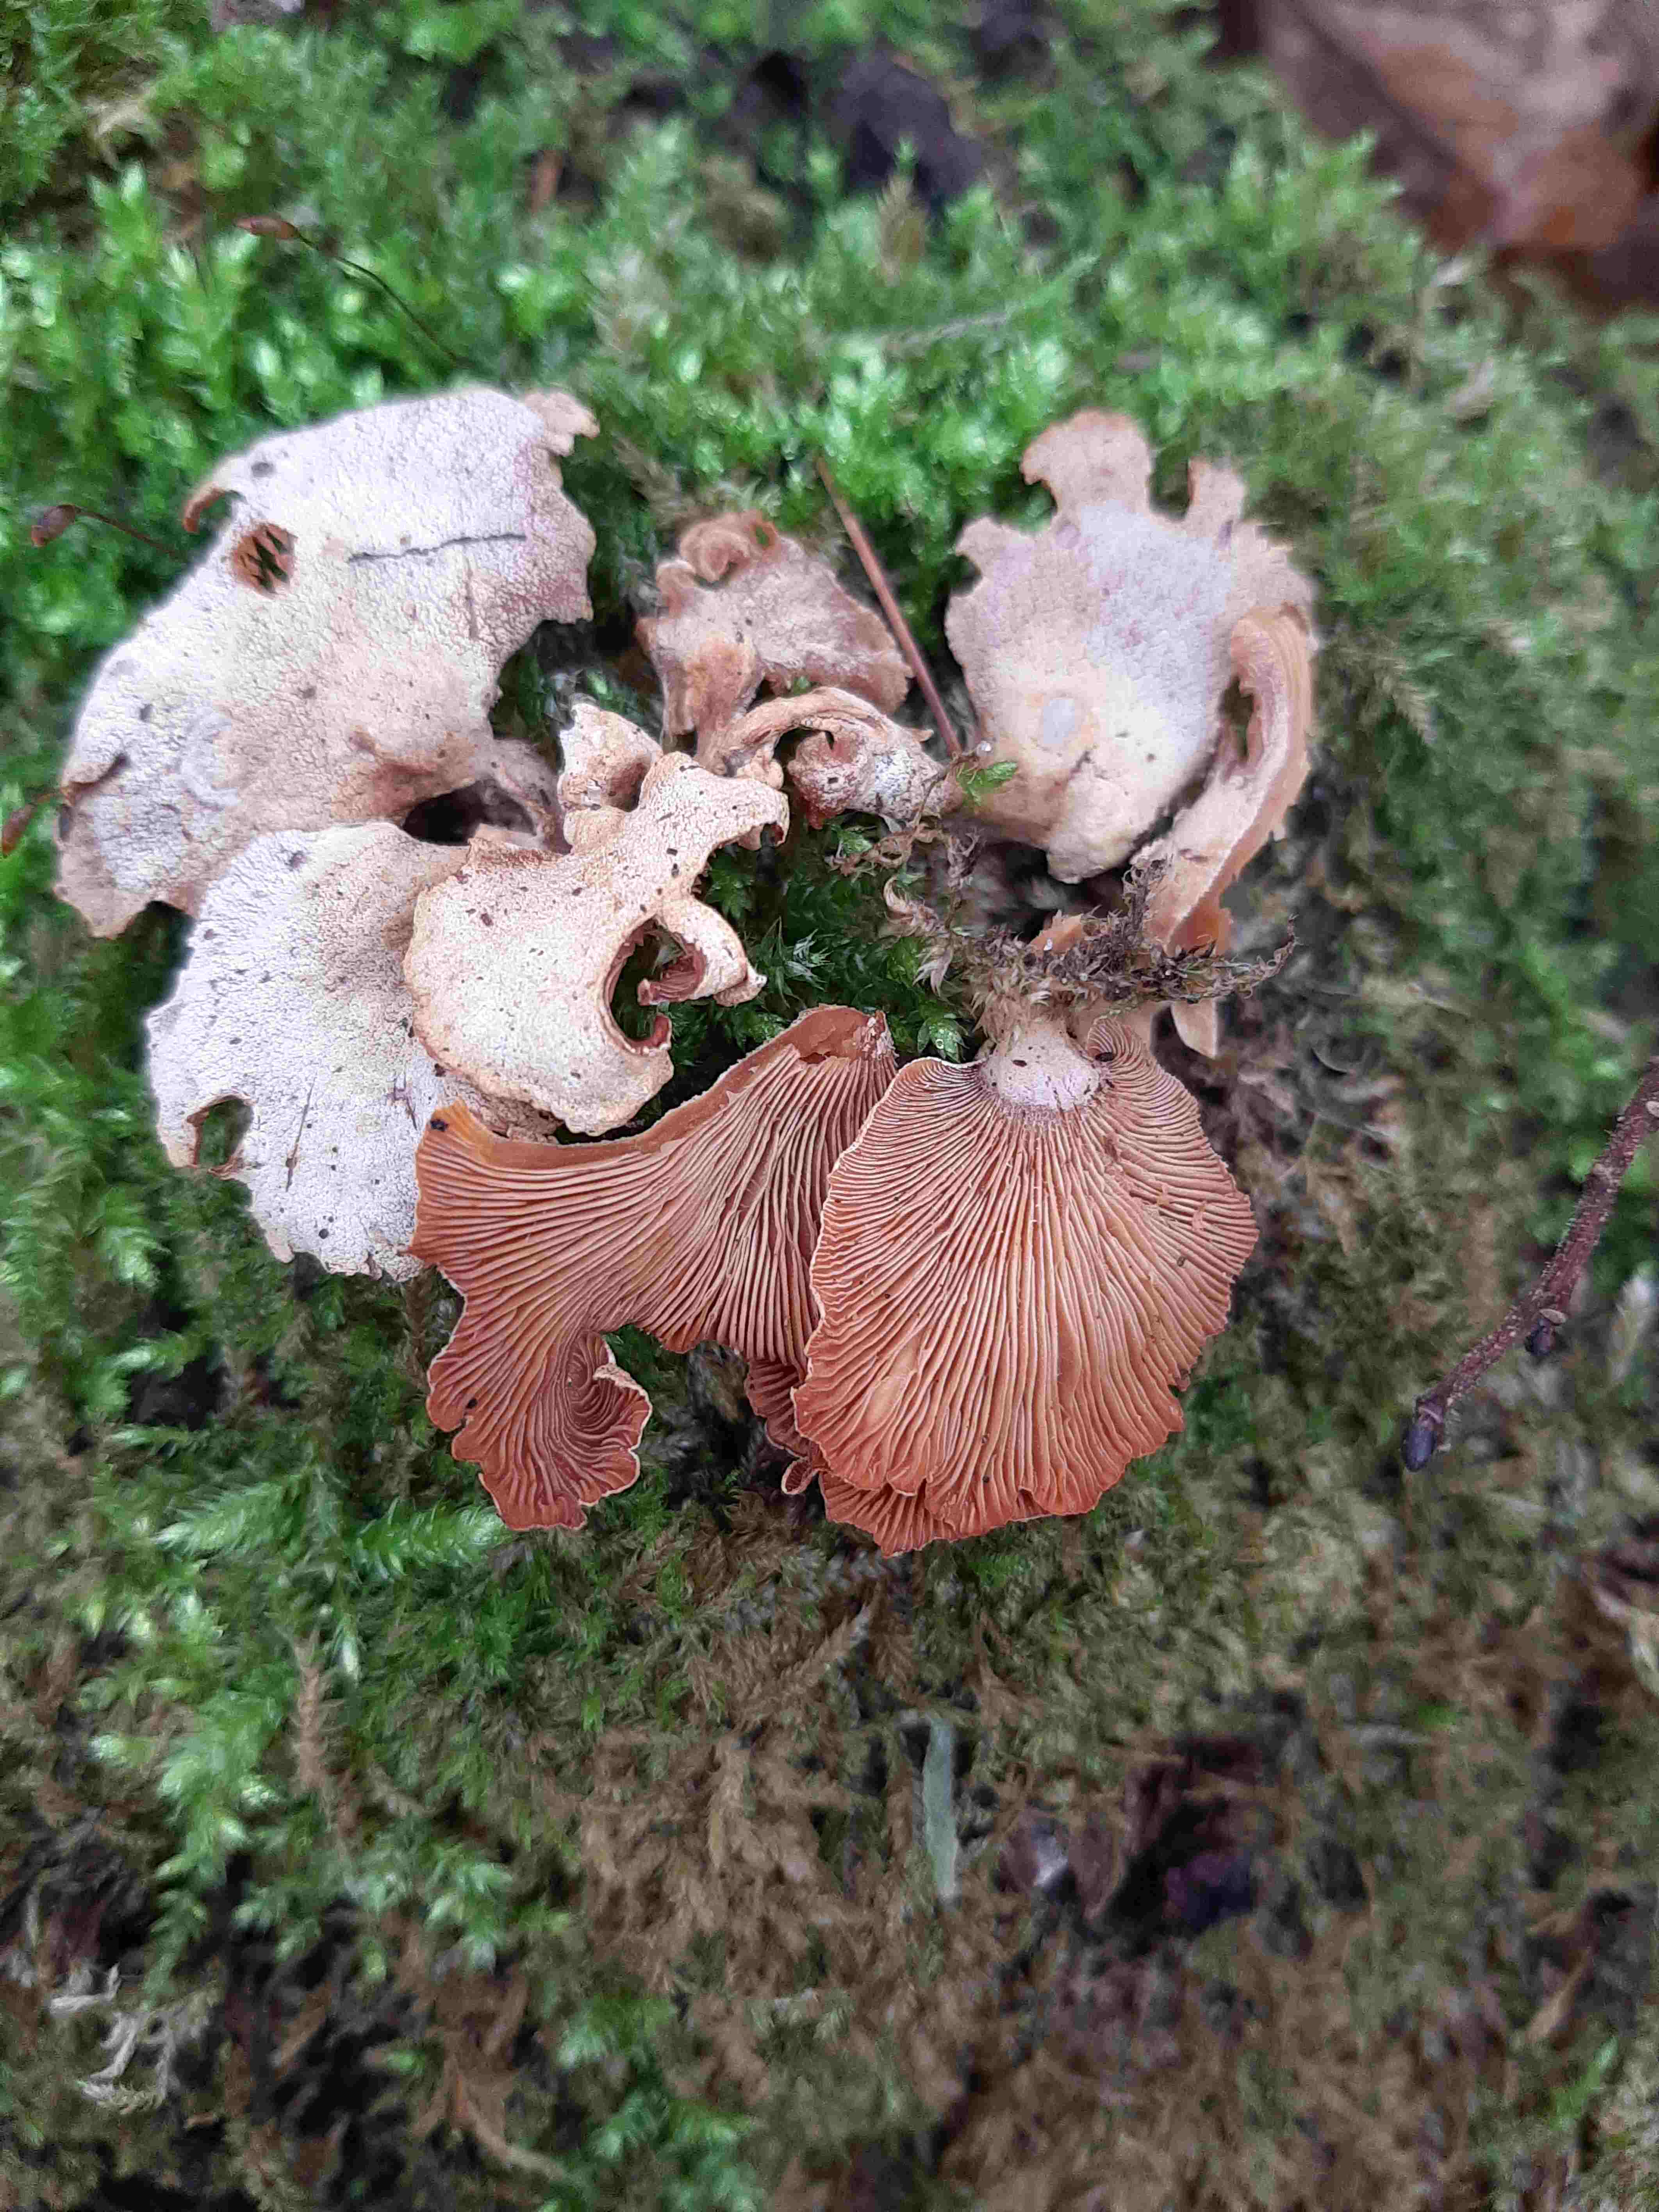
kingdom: Fungi
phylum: Basidiomycota
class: Agaricomycetes
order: Agaricales
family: Mycenaceae
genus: Panellus
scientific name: Panellus stipticus
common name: kliddet epaulethat
